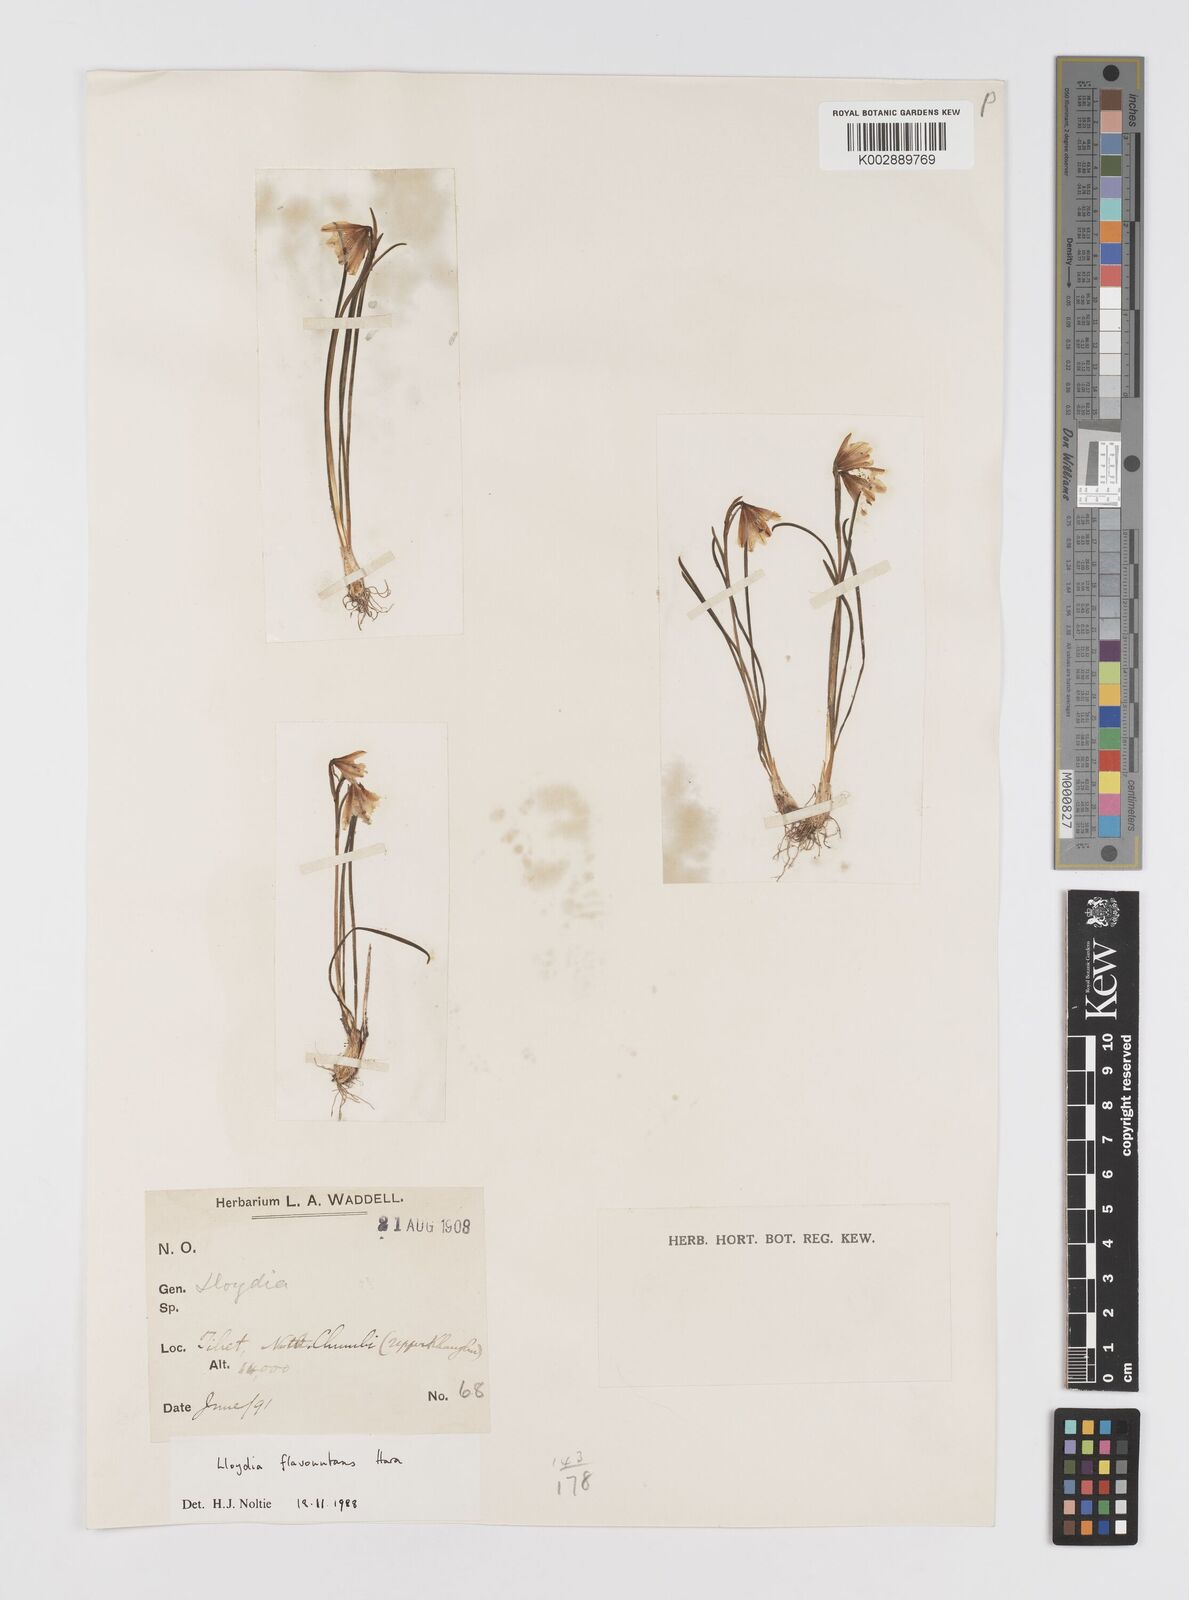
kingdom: Plantae
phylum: Tracheophyta
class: Liliopsida
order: Liliales
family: Liliaceae
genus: Gagea
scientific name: Gagea flavonutans
